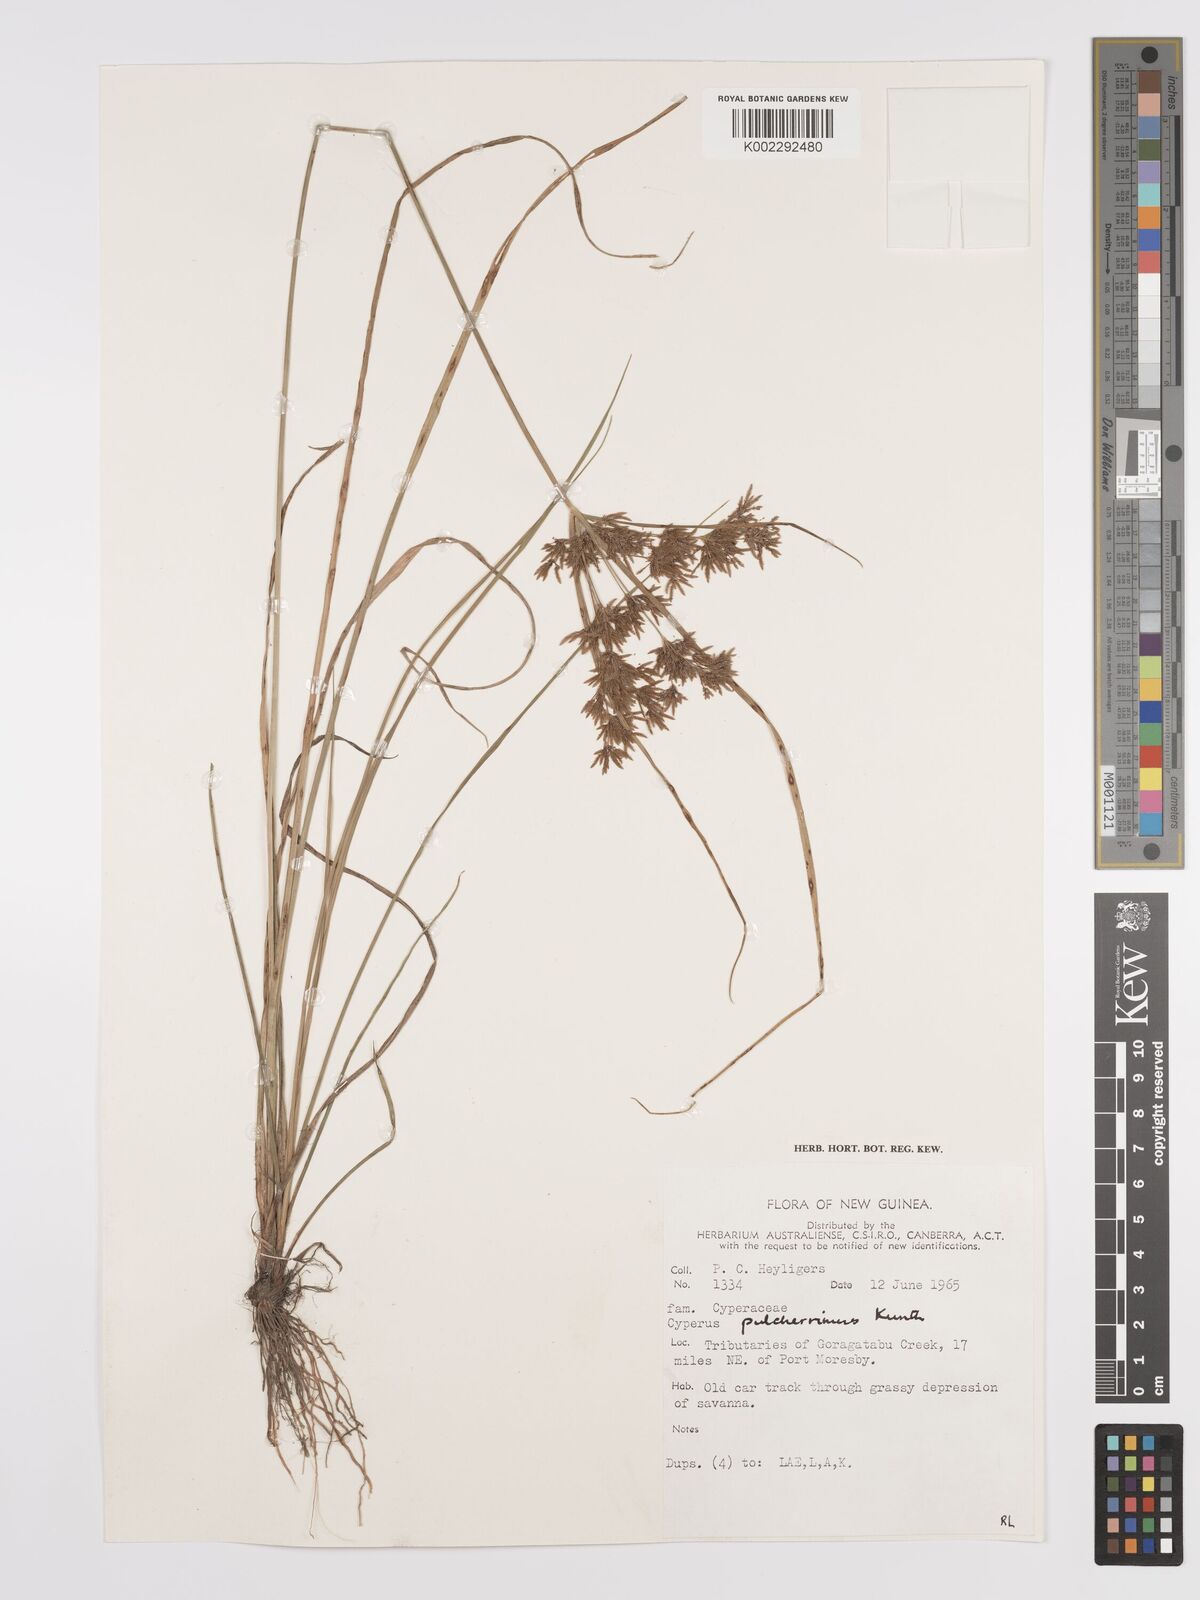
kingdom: Plantae
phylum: Tracheophyta
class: Liliopsida
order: Poales
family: Cyperaceae
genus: Cyperus
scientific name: Cyperus pulcherrimus
